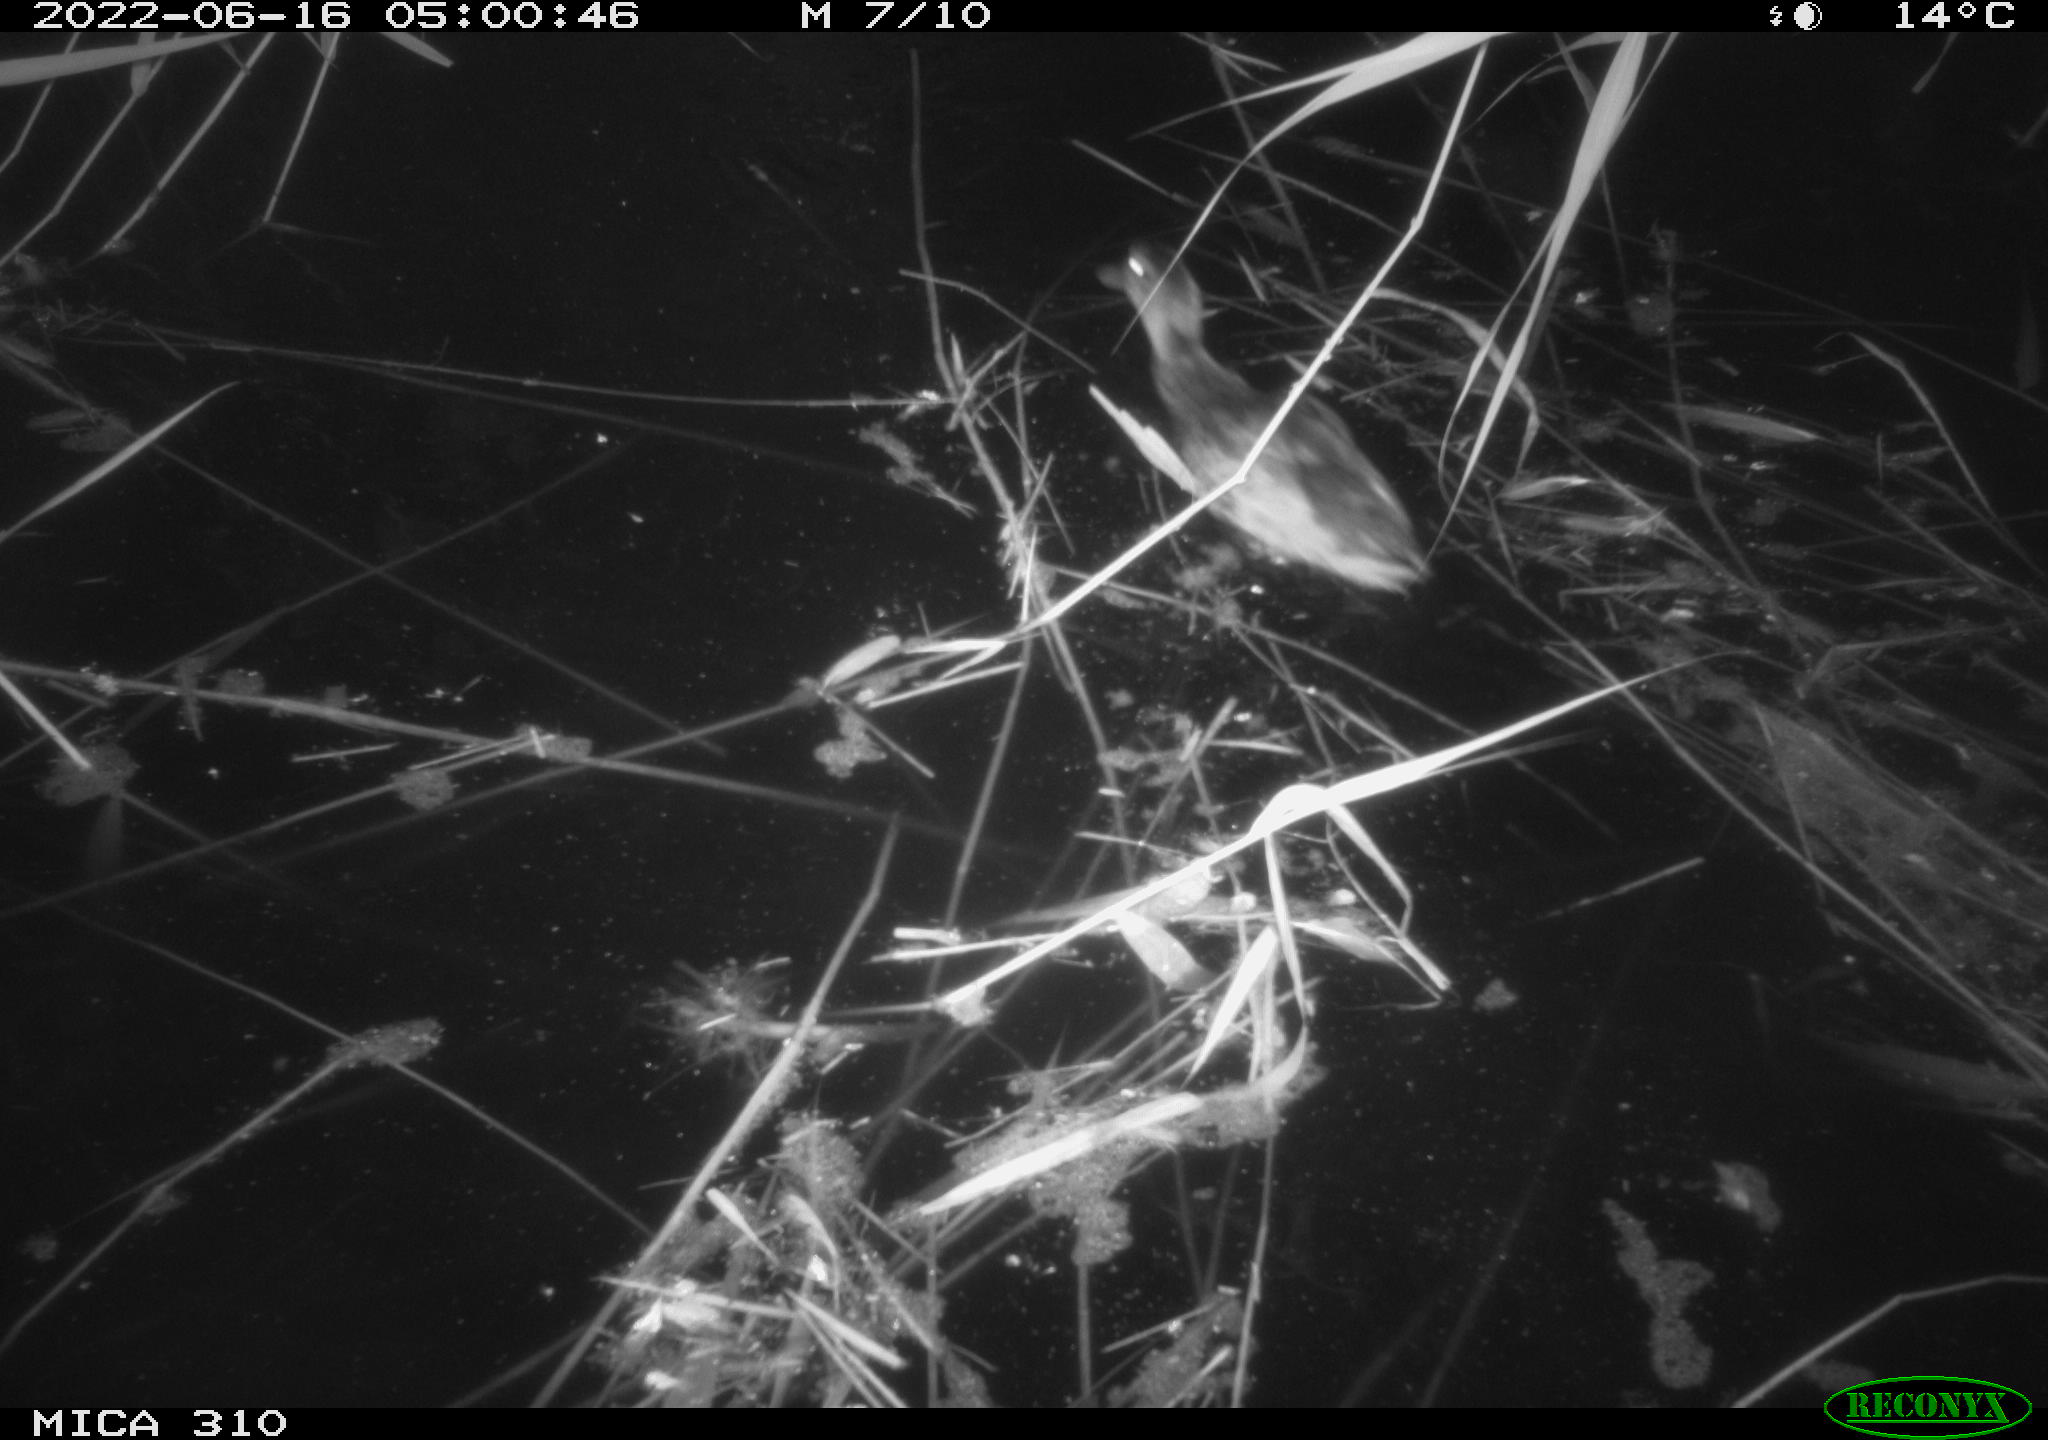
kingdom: Animalia
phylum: Chordata
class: Aves
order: Gruiformes
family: Rallidae
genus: Gallinula
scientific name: Gallinula chloropus
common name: Common moorhen
